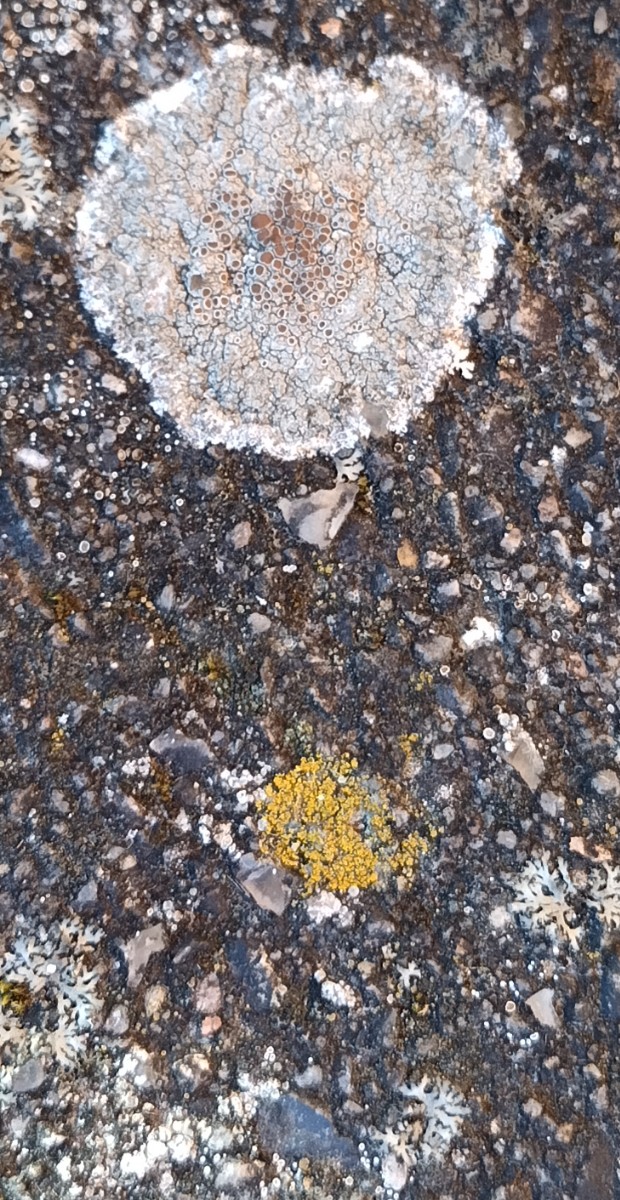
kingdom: Fungi
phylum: Ascomycota
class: Lecanoromycetes
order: Lecanorales
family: Lecanoraceae
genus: Lecanora
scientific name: Lecanora campestris
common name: mur-kantskivelav
